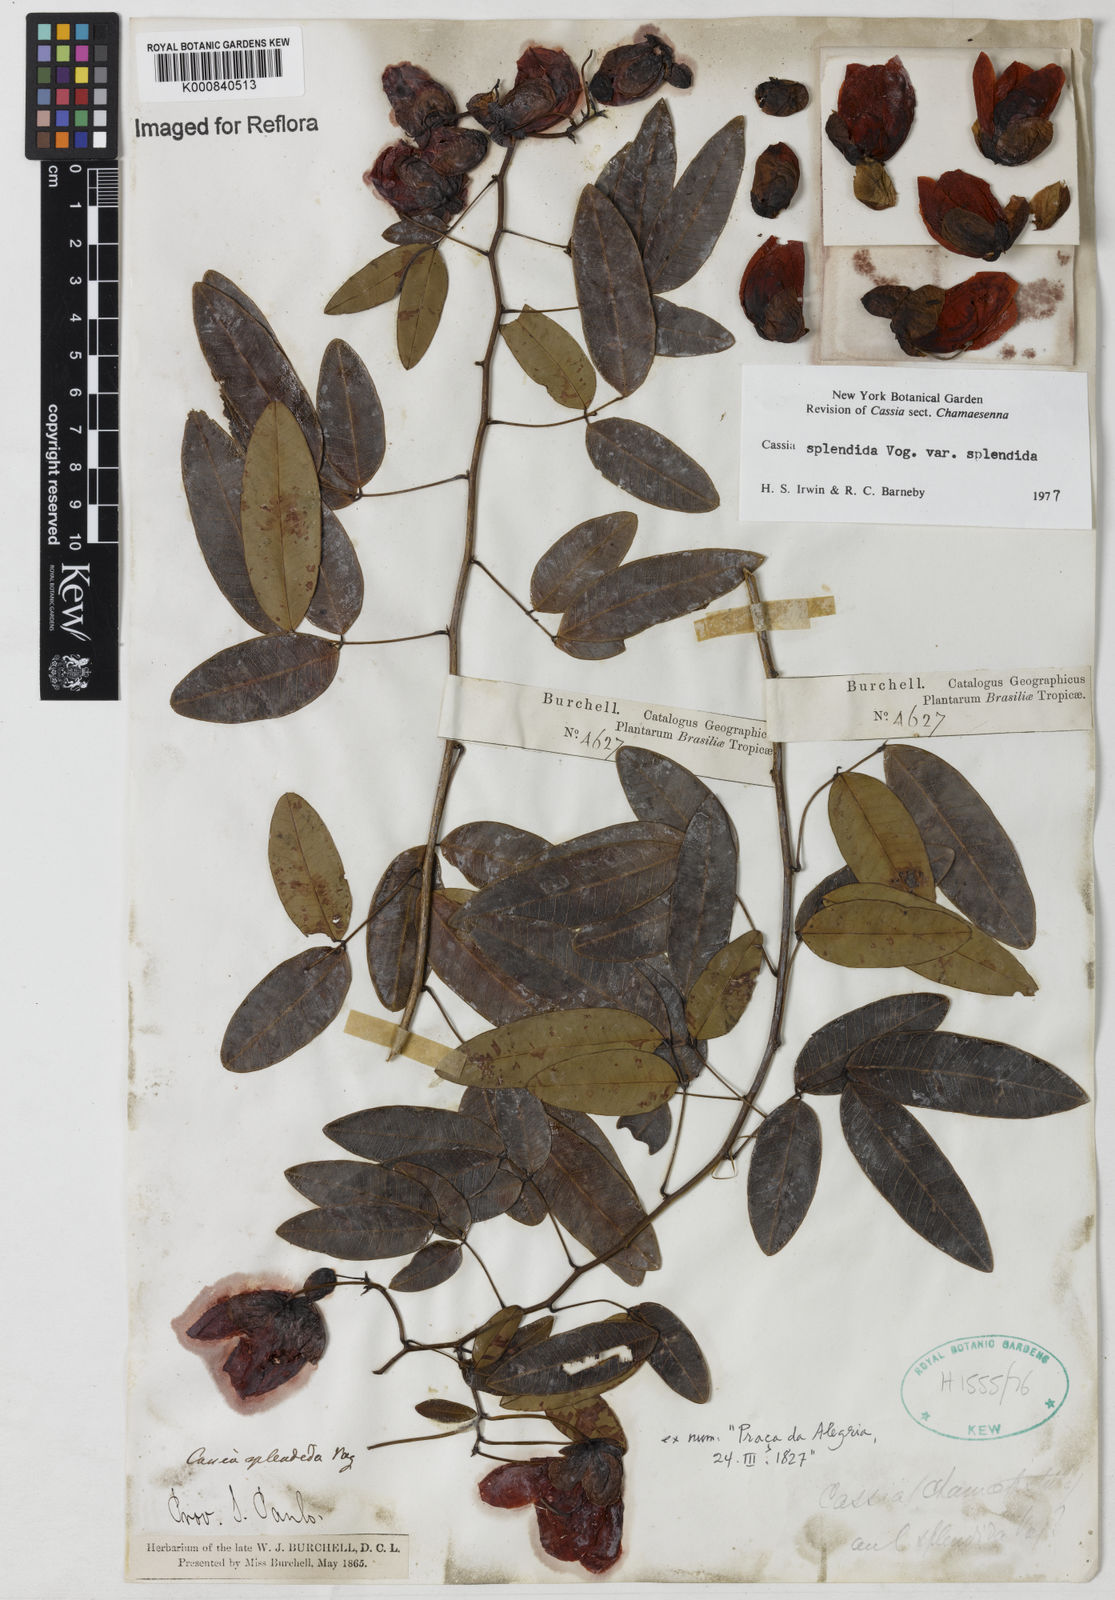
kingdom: Plantae
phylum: Tracheophyta
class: Magnoliopsida
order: Fabales
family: Fabaceae
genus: Senna
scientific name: Senna splendida
